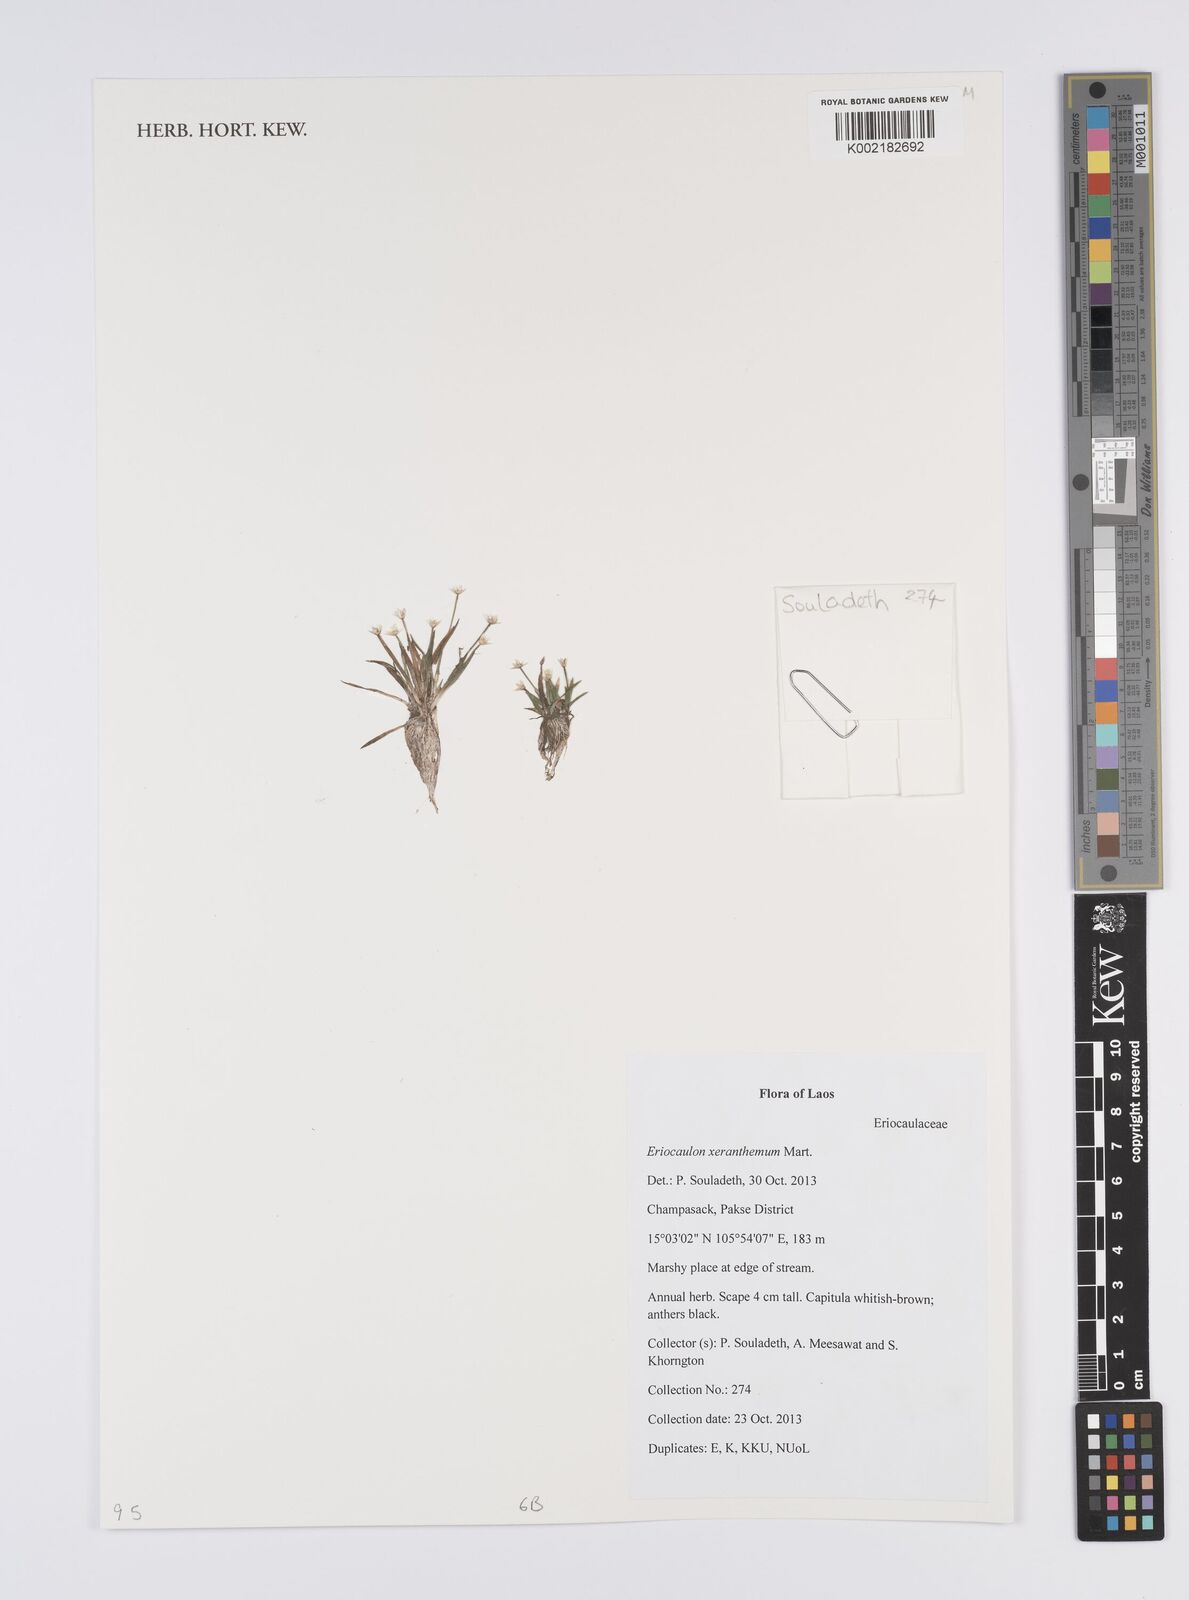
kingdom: Plantae
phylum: Tracheophyta
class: Liliopsida
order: Poales
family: Eriocaulaceae
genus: Eriocaulon
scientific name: Eriocaulon xeranthemum
